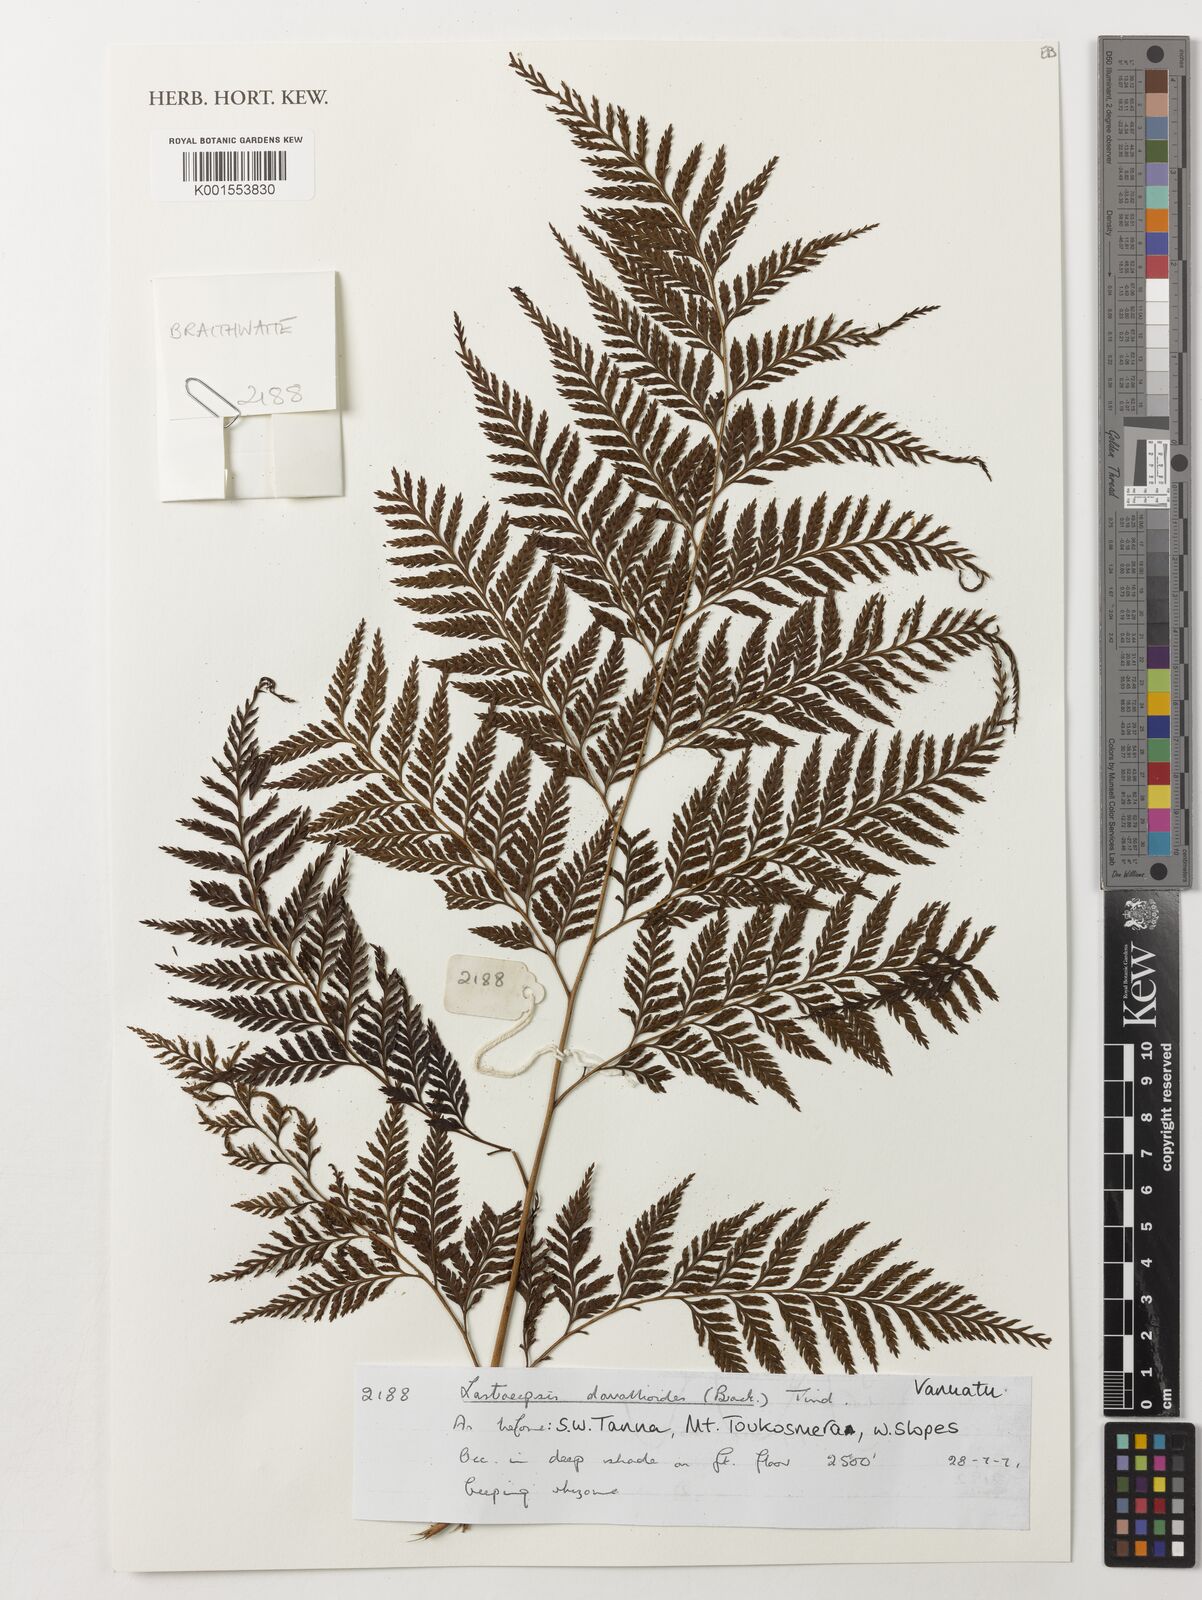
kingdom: Plantae
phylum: Tracheophyta
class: Polypodiopsida
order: Polypodiales
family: Dryopteridaceae
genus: Lastreopsis
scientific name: Lastreopsis davallioides
